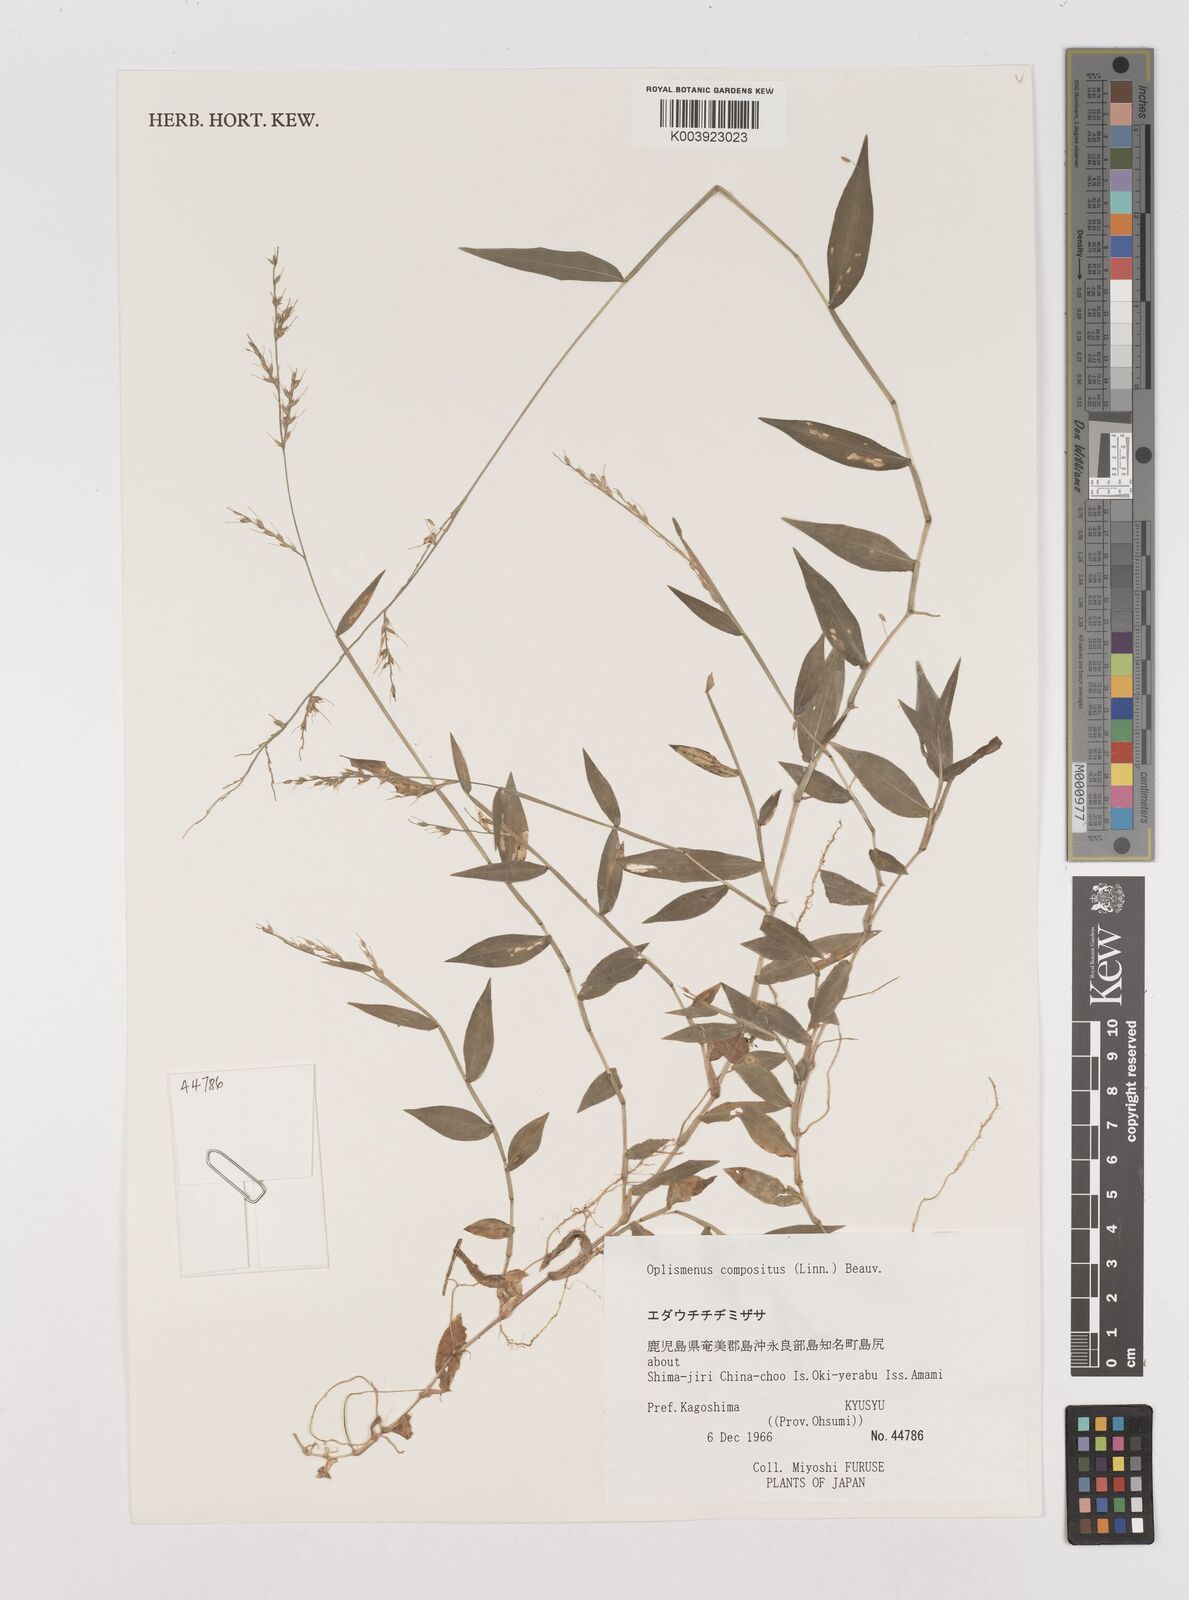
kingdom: Plantae
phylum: Tracheophyta
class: Liliopsida
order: Poales
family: Poaceae
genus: Oplismenus
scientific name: Oplismenus compositus
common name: Running mountain grass
